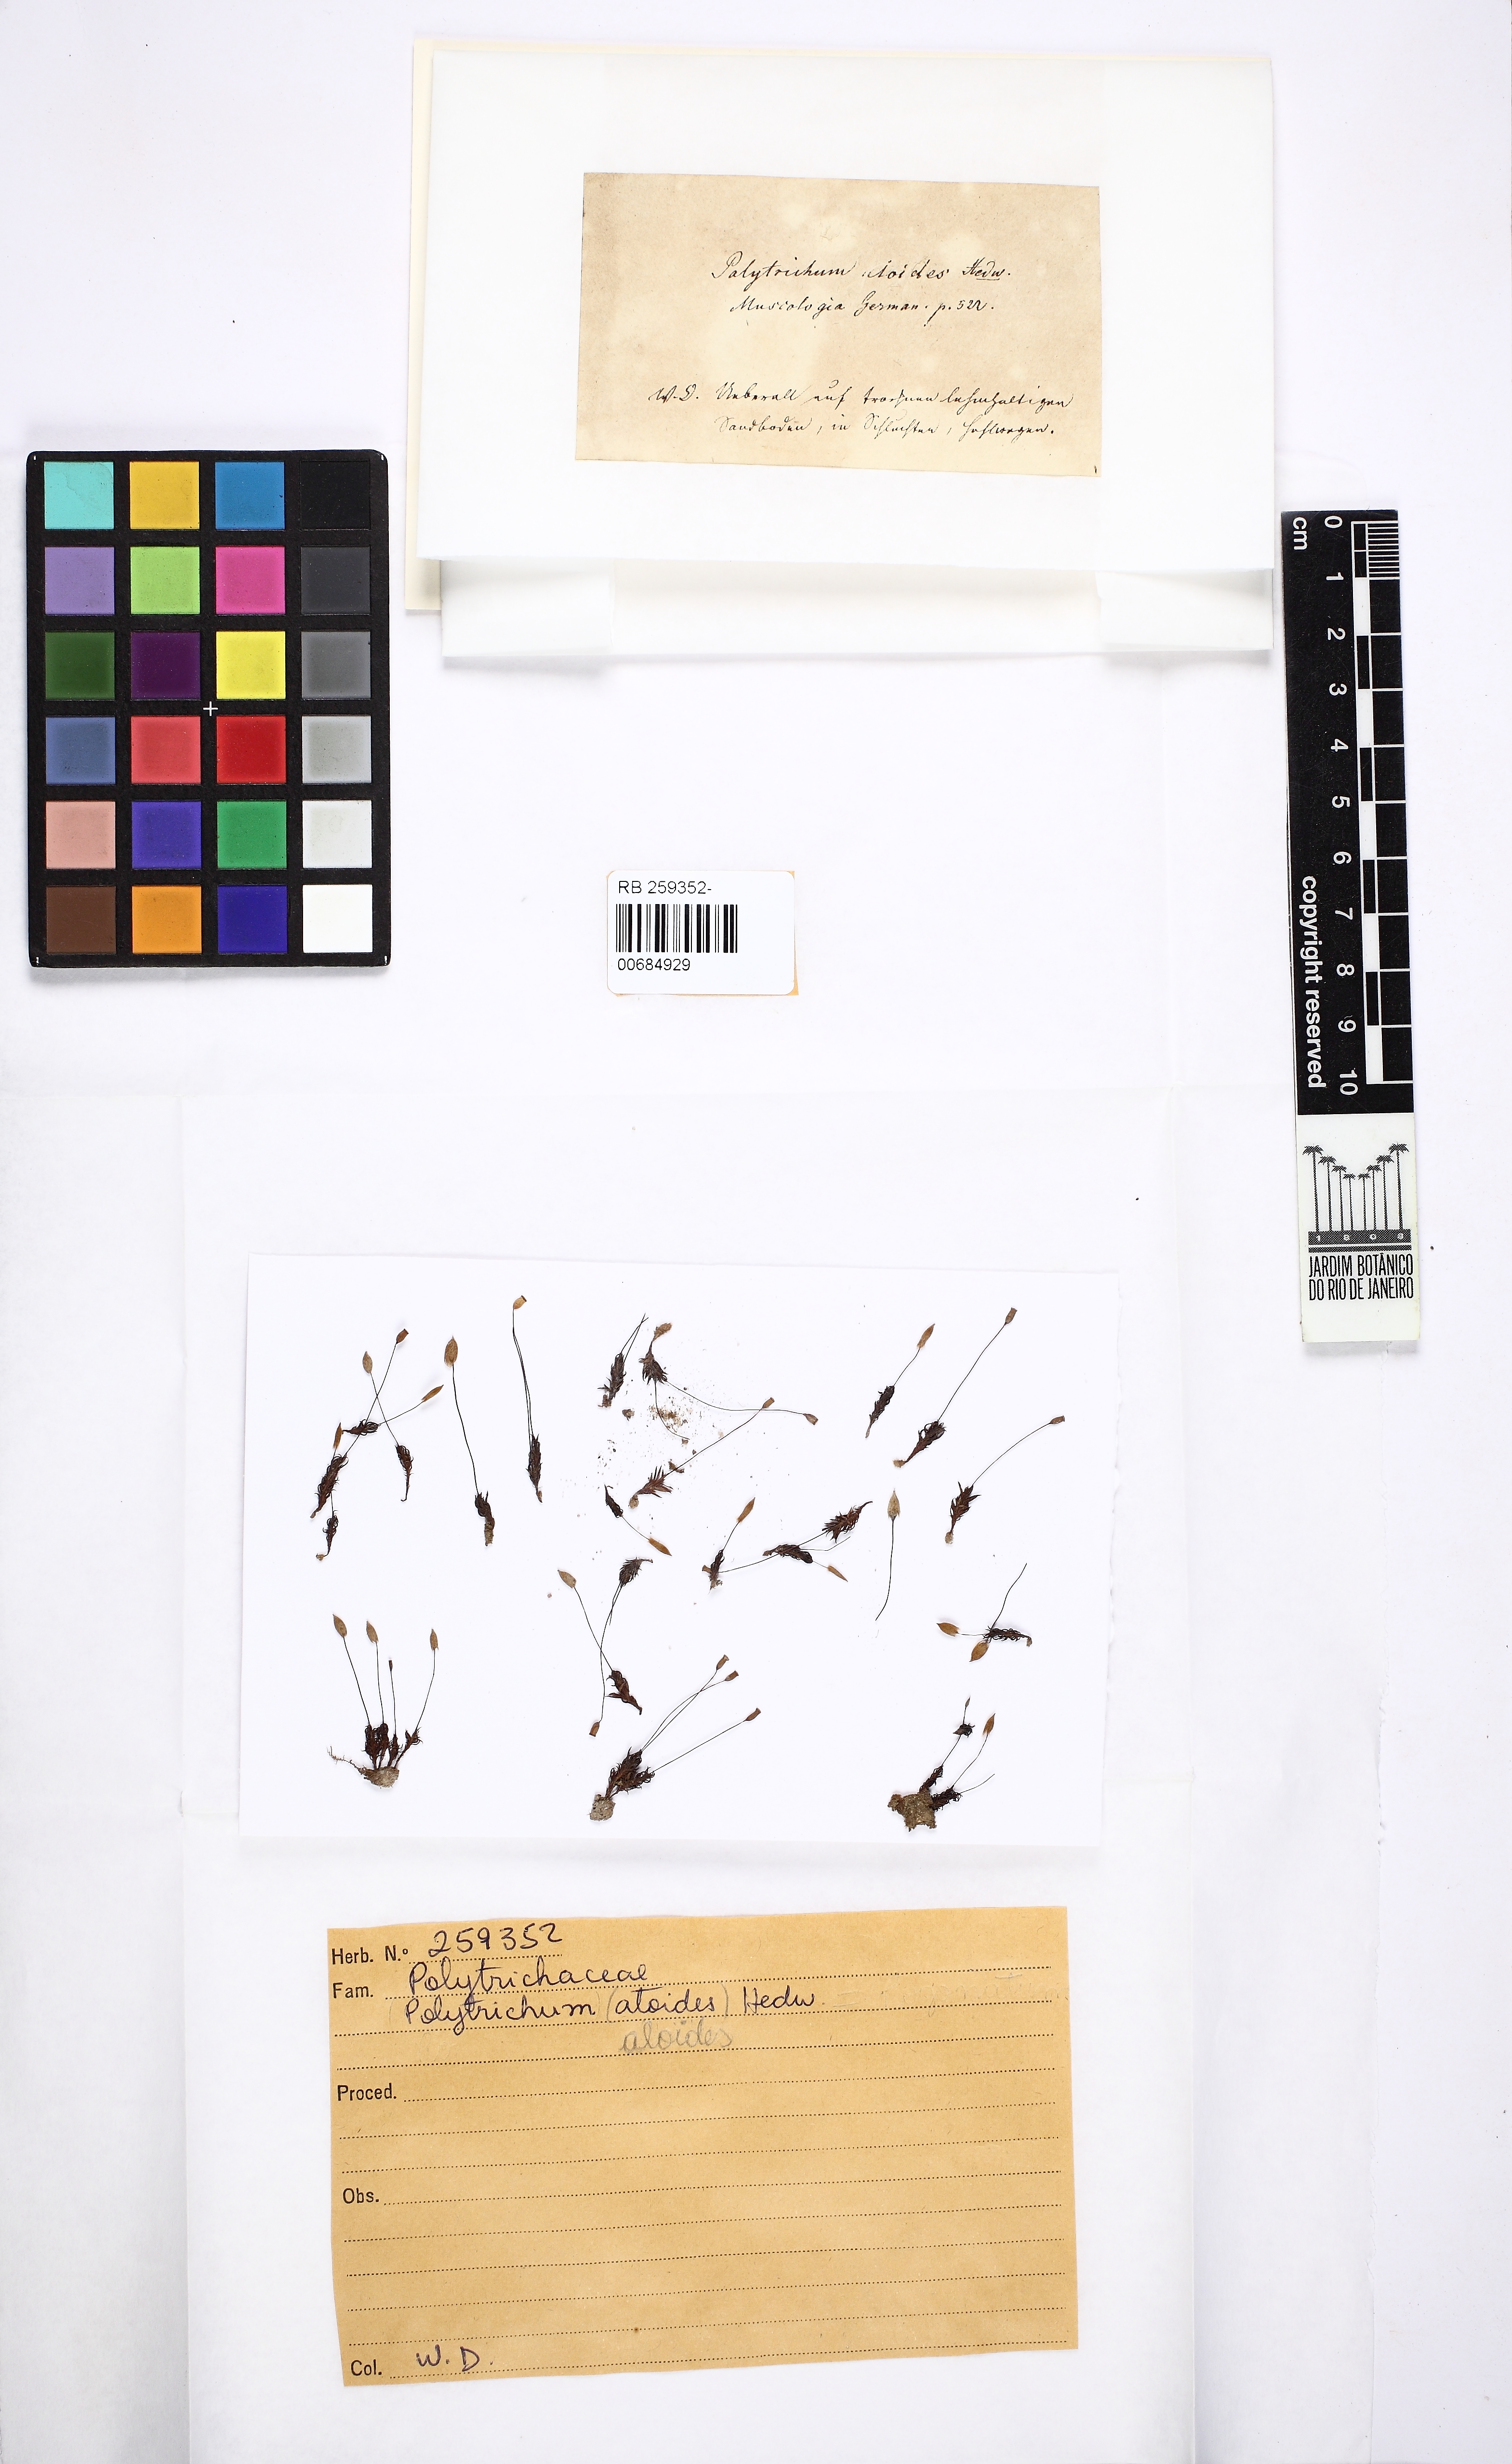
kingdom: Plantae
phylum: Bryophyta
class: Polytrichopsida
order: Polytrichales
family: Polytrichaceae
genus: Pogonatum
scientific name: Pogonatum aloides
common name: Aloe haircap
